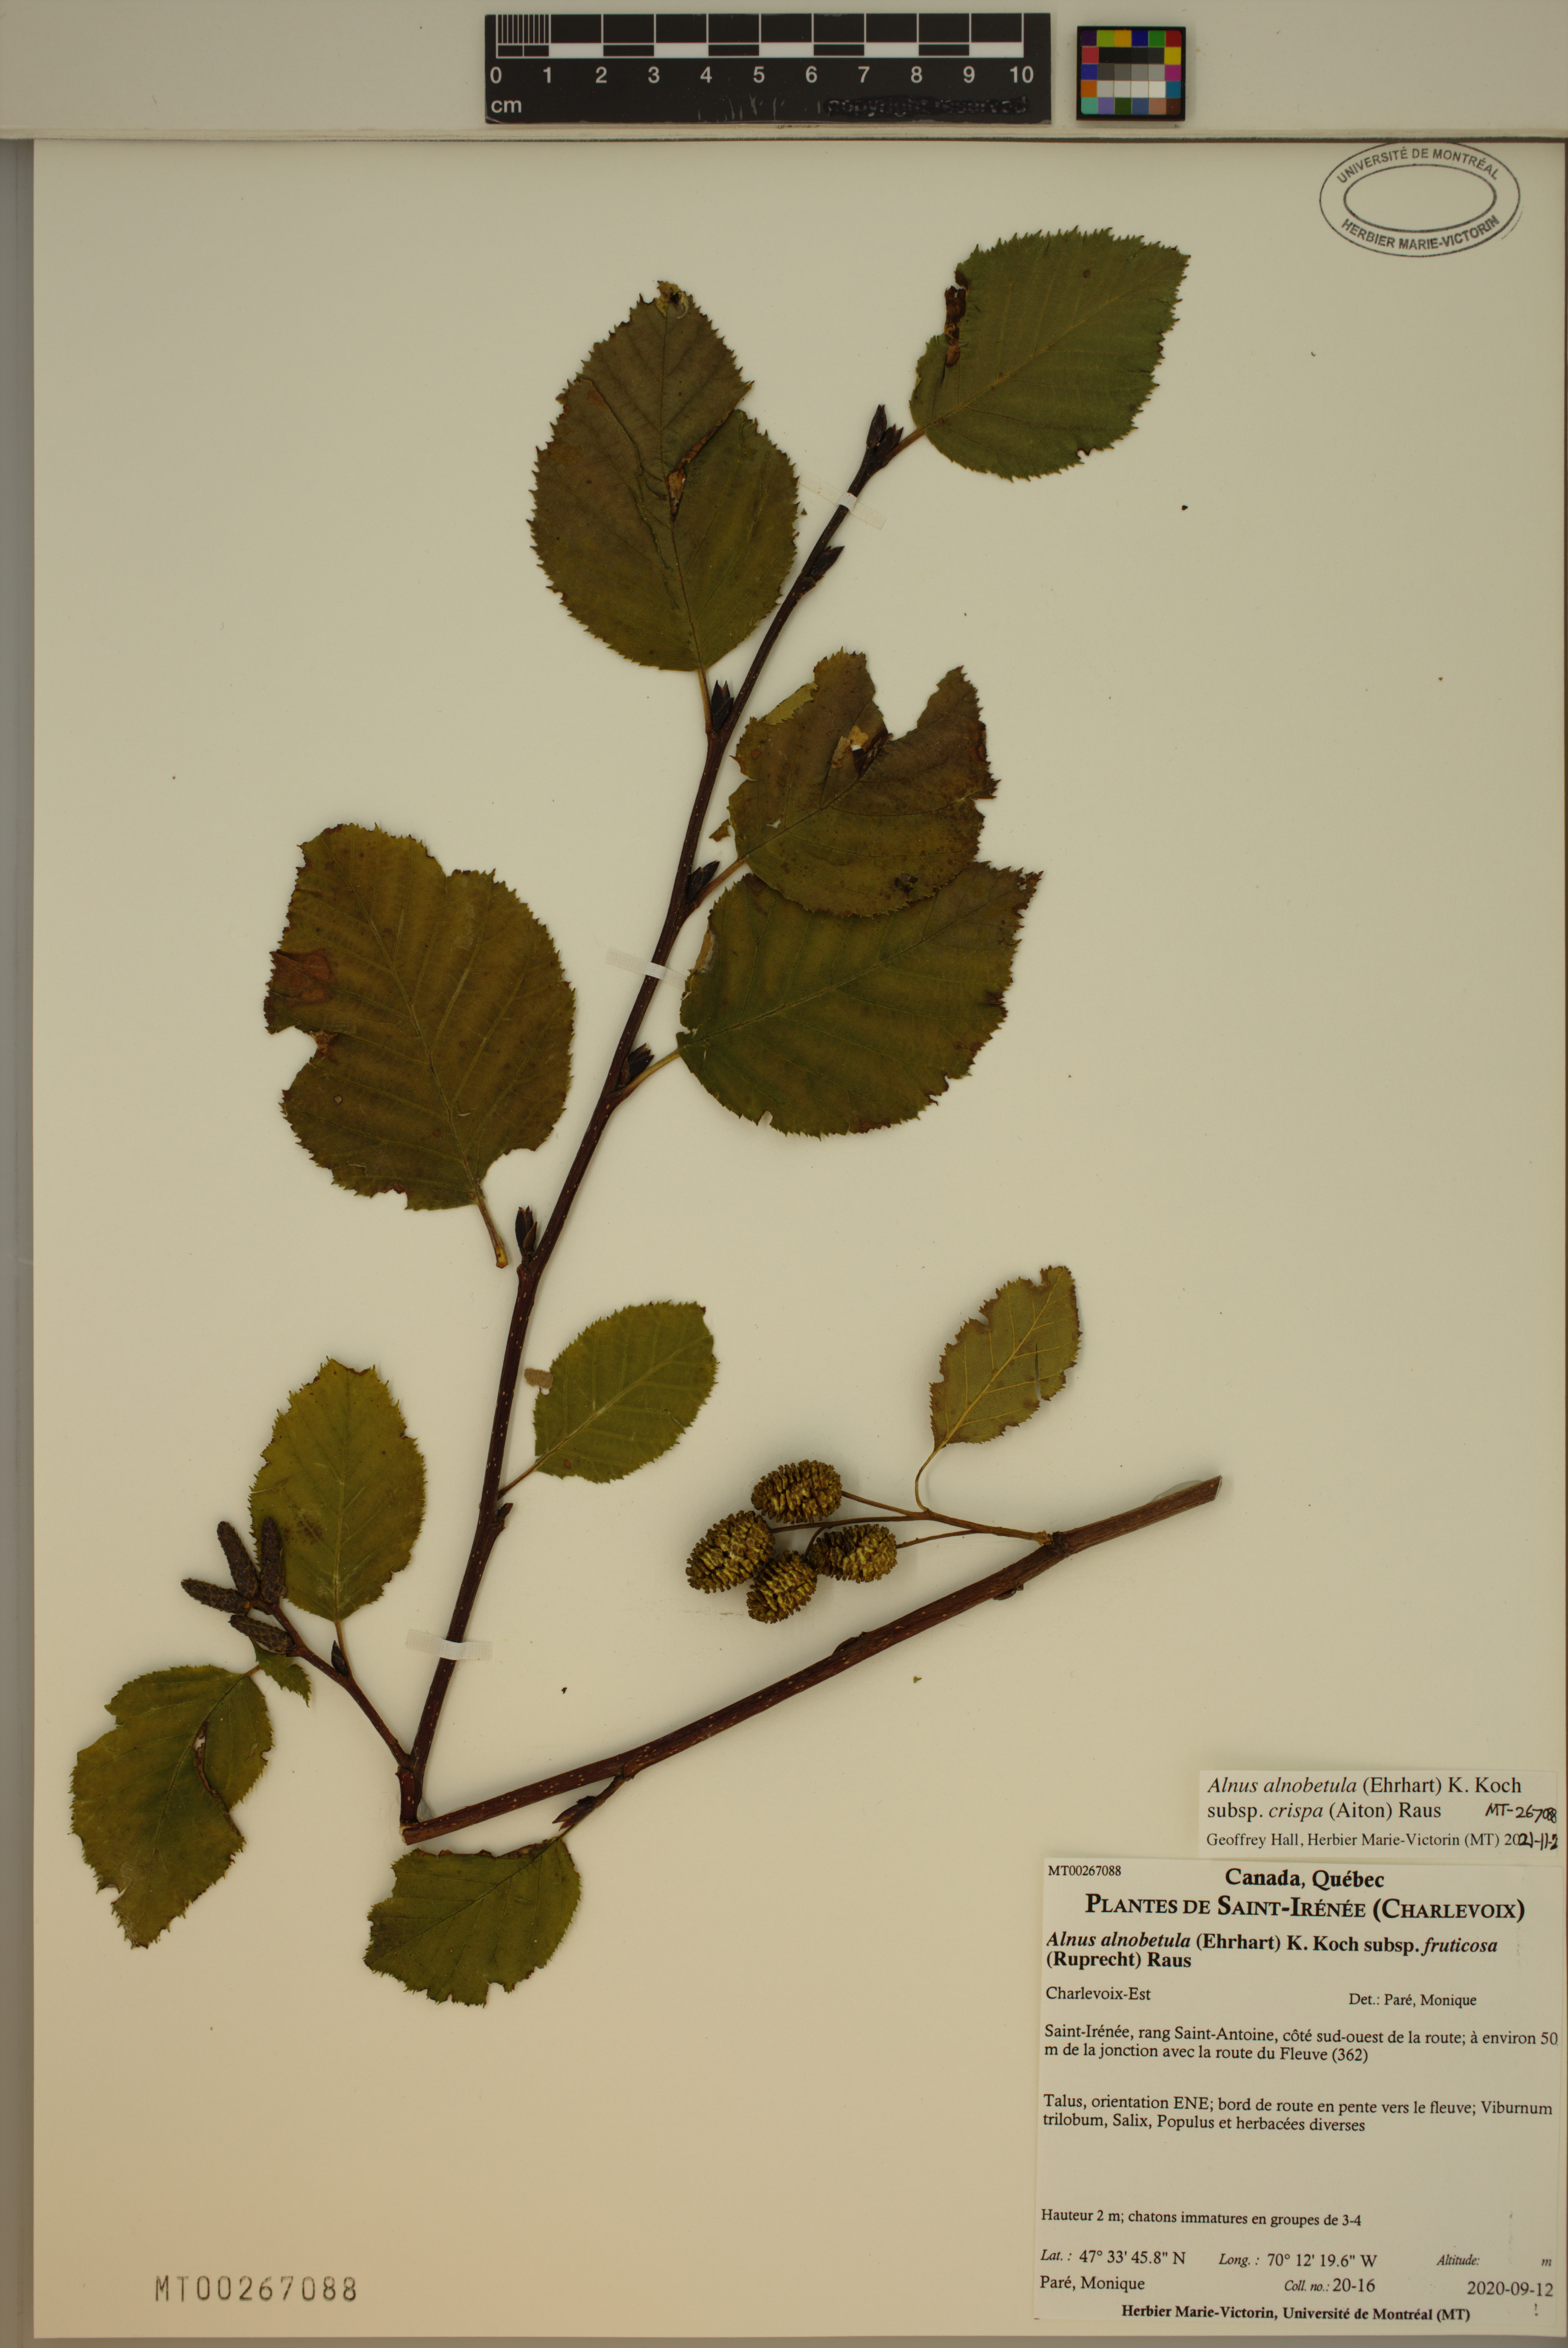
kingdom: Plantae
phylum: Tracheophyta
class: Magnoliopsida
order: Fagales
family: Betulaceae
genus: Alnus
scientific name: Alnus alnobetula
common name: Green alder
